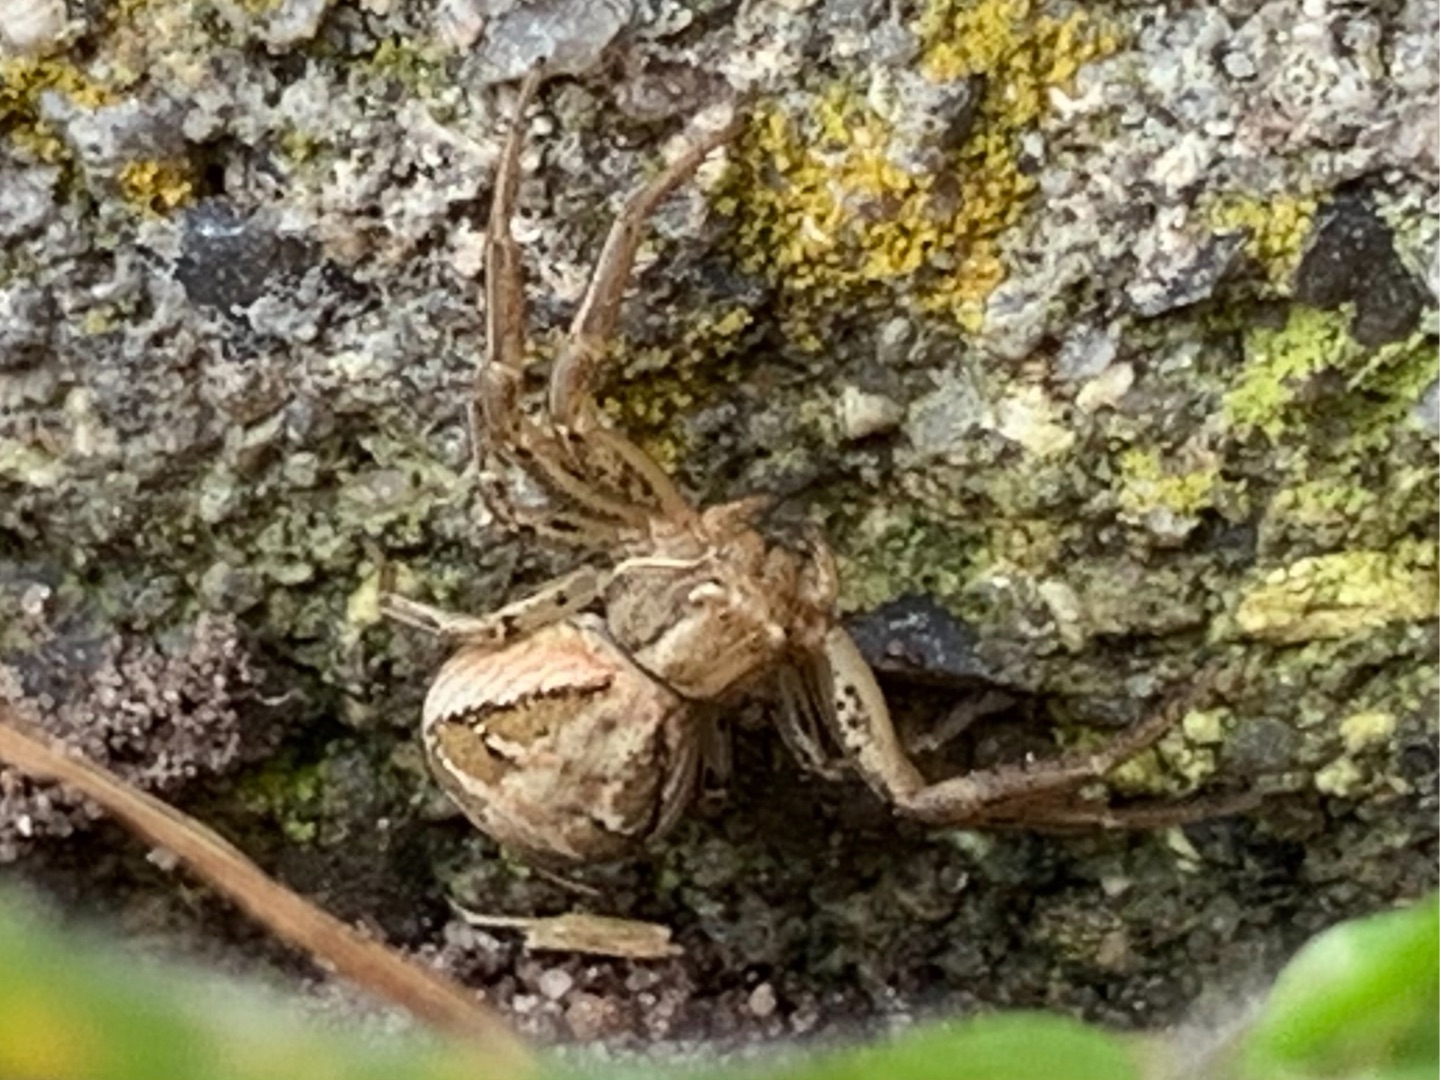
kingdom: Animalia
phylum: Arthropoda
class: Arachnida
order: Araneae
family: Thomisidae
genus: Xysticus
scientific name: Xysticus
